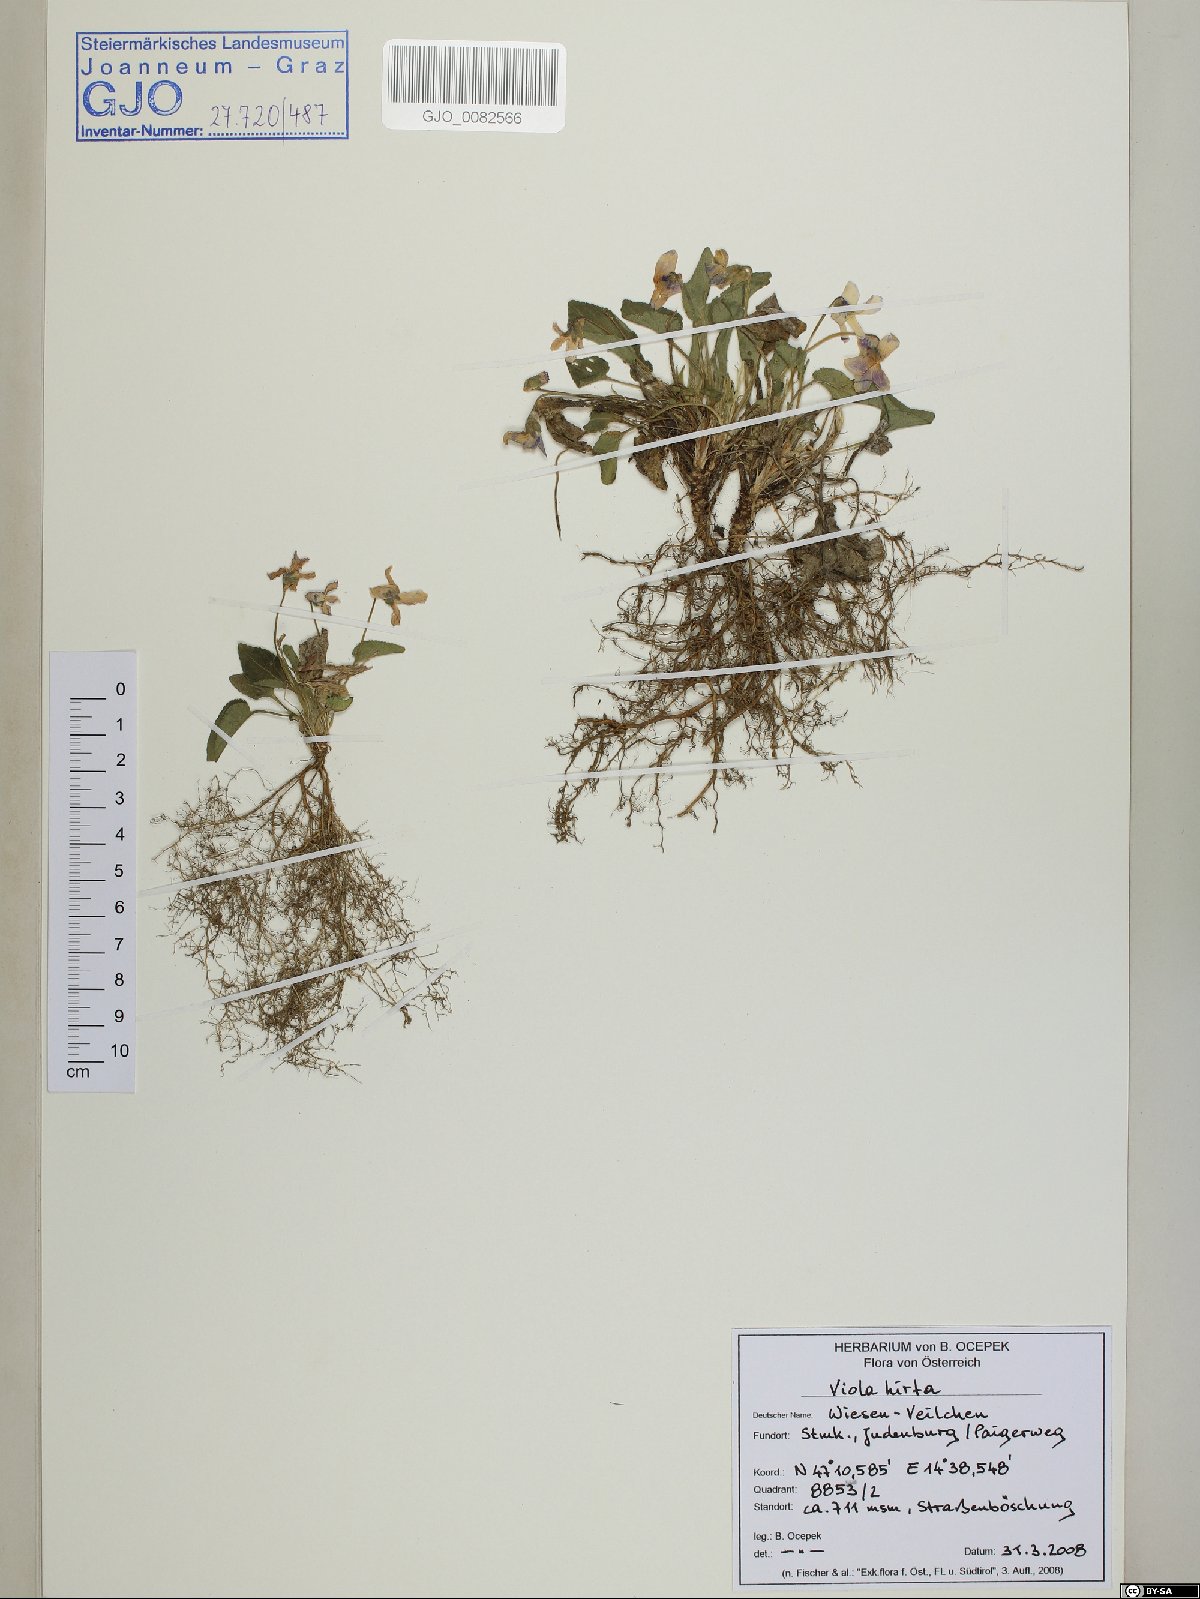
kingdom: Plantae
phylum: Tracheophyta
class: Magnoliopsida
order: Malpighiales
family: Violaceae
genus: Viola
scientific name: Viola hirta
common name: Hairy violet
